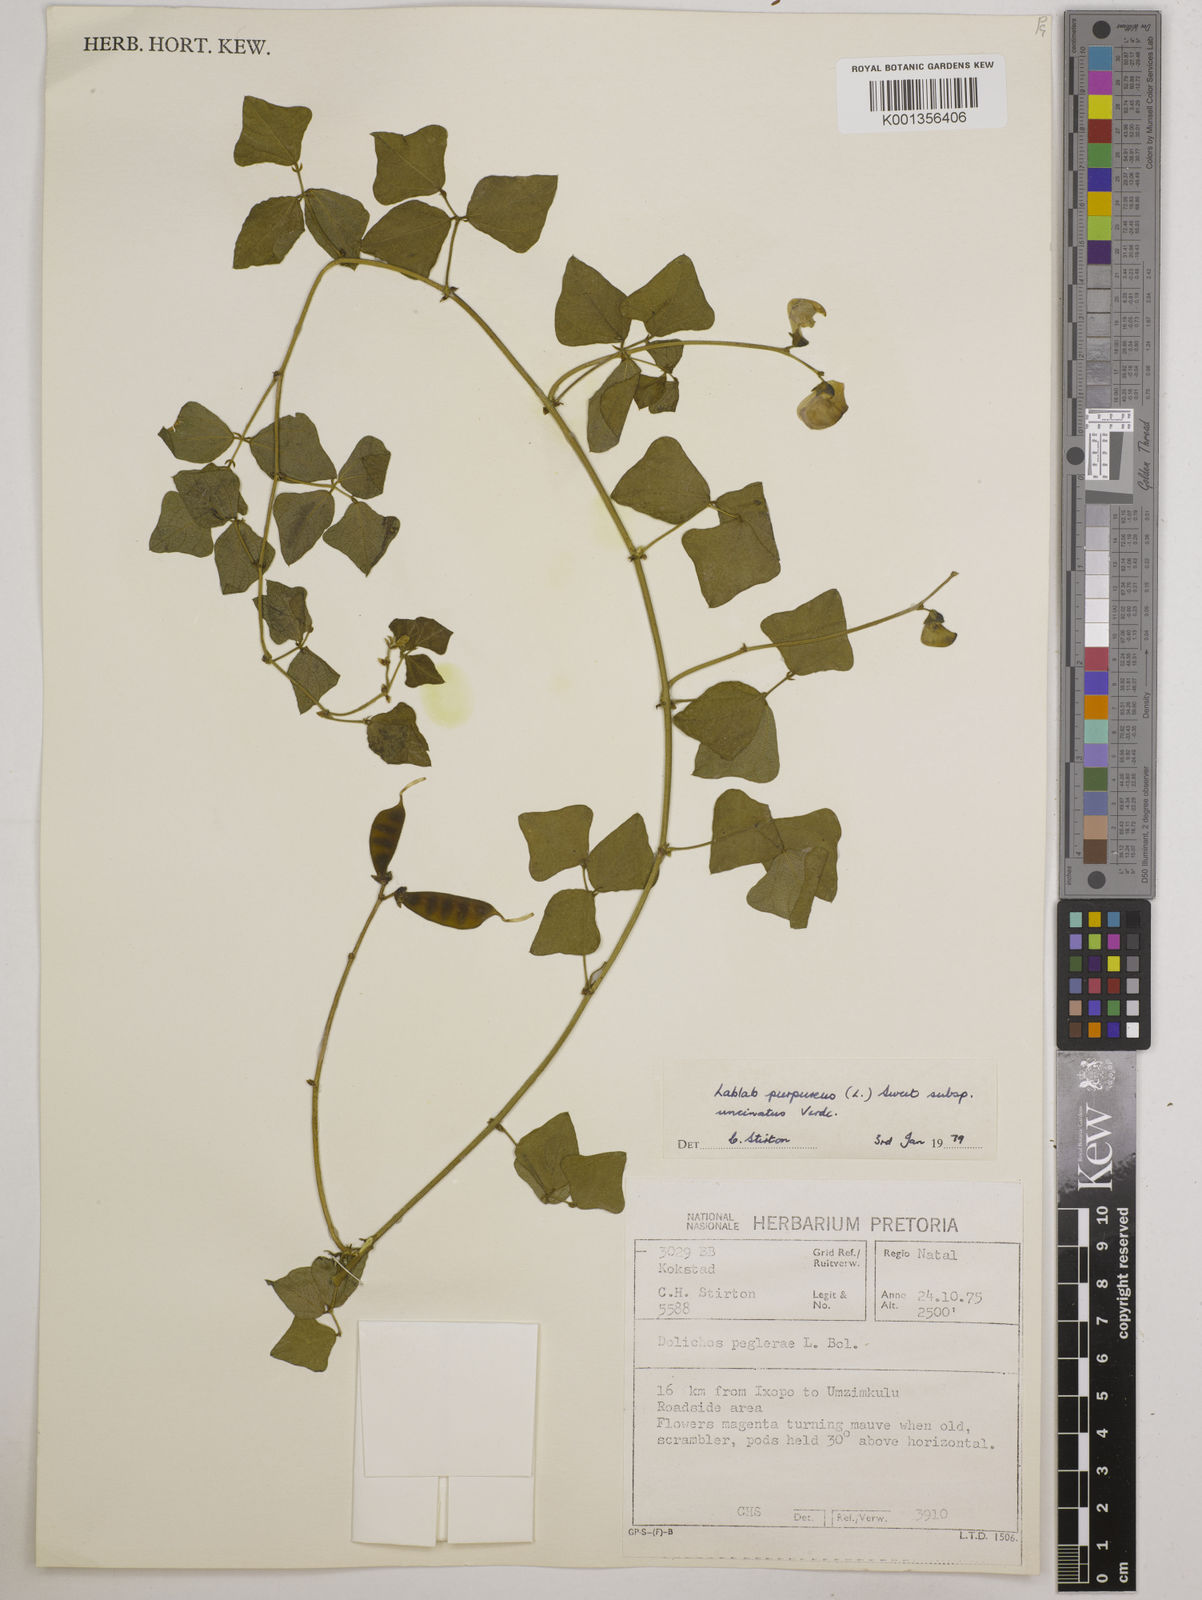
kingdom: Plantae
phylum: Tracheophyta
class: Magnoliopsida
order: Fabales
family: Fabaceae
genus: Lablab
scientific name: Lablab purpureus
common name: Lablab-bean
